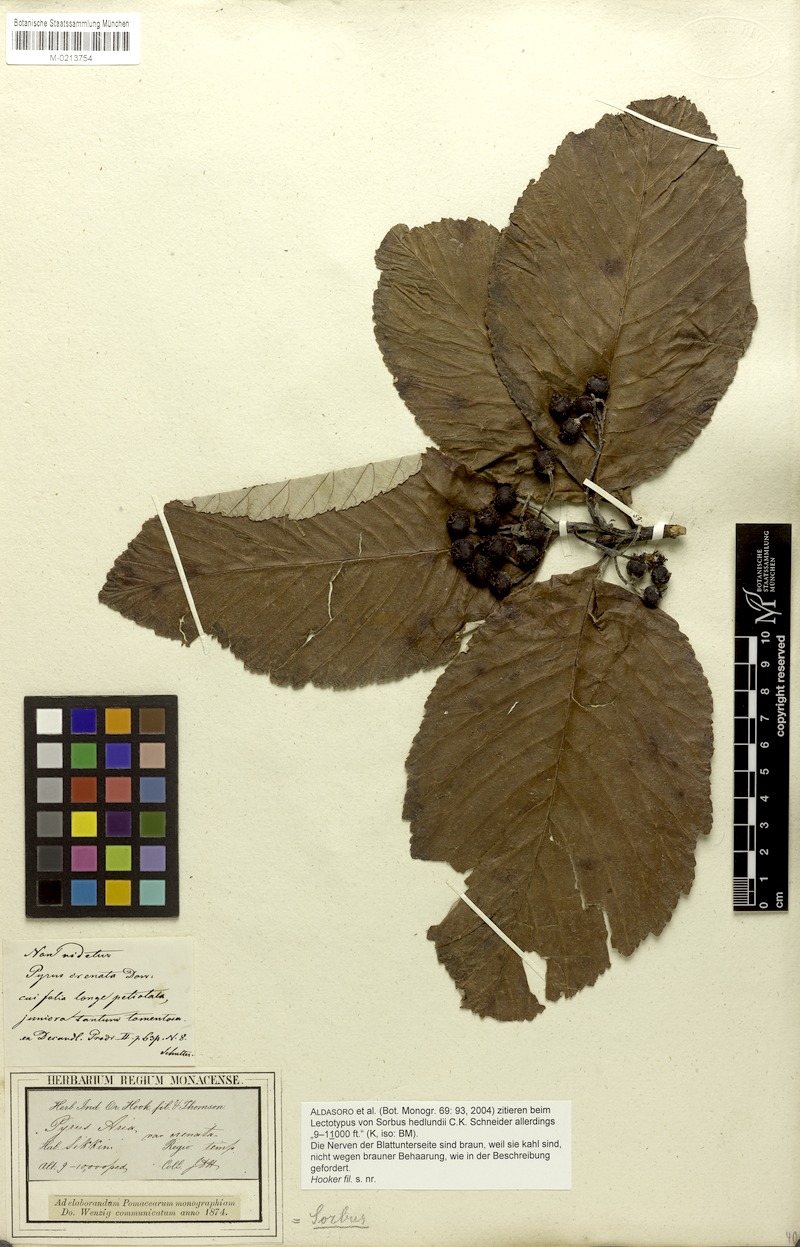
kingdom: Plantae
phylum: Tracheophyta
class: Magnoliopsida
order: Rosales
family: Rosaceae
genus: Sorbus
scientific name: Sorbus hedlundii
